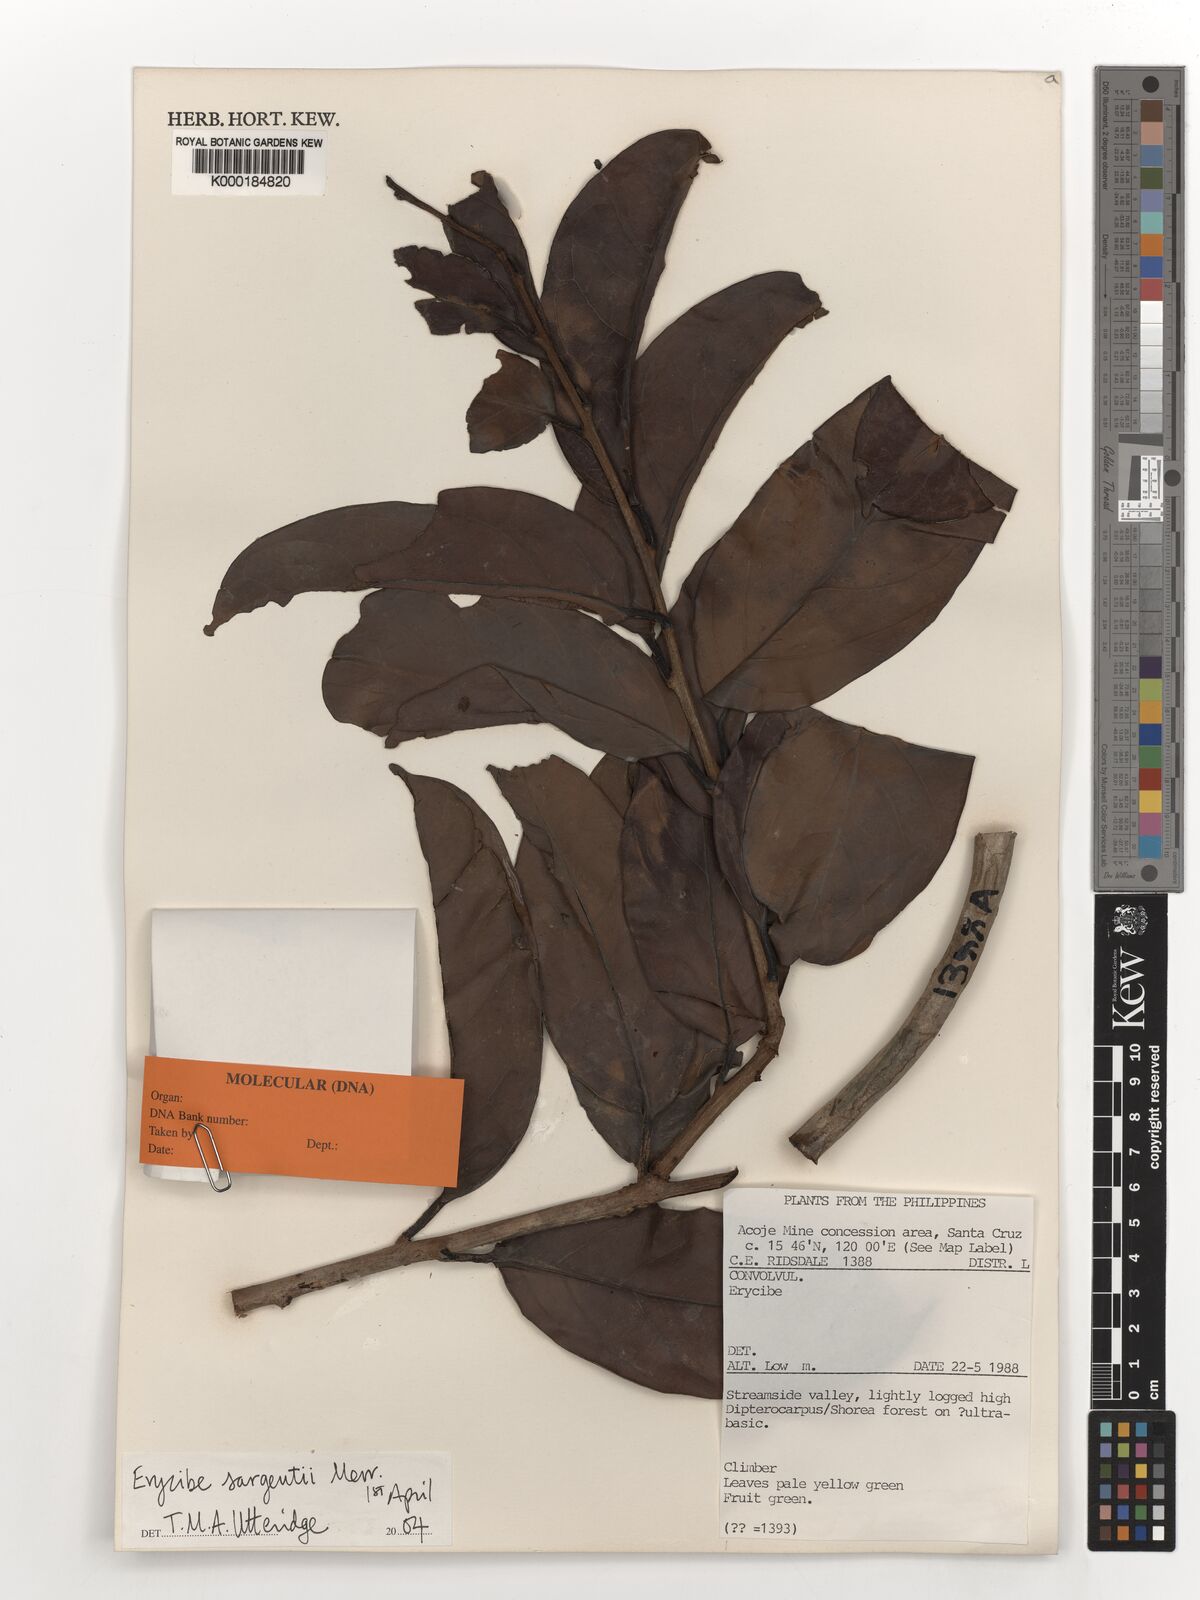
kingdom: Plantae
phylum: Tracheophyta
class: Magnoliopsida
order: Solanales
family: Convolvulaceae
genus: Erycibe
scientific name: Erycibe sargentii
